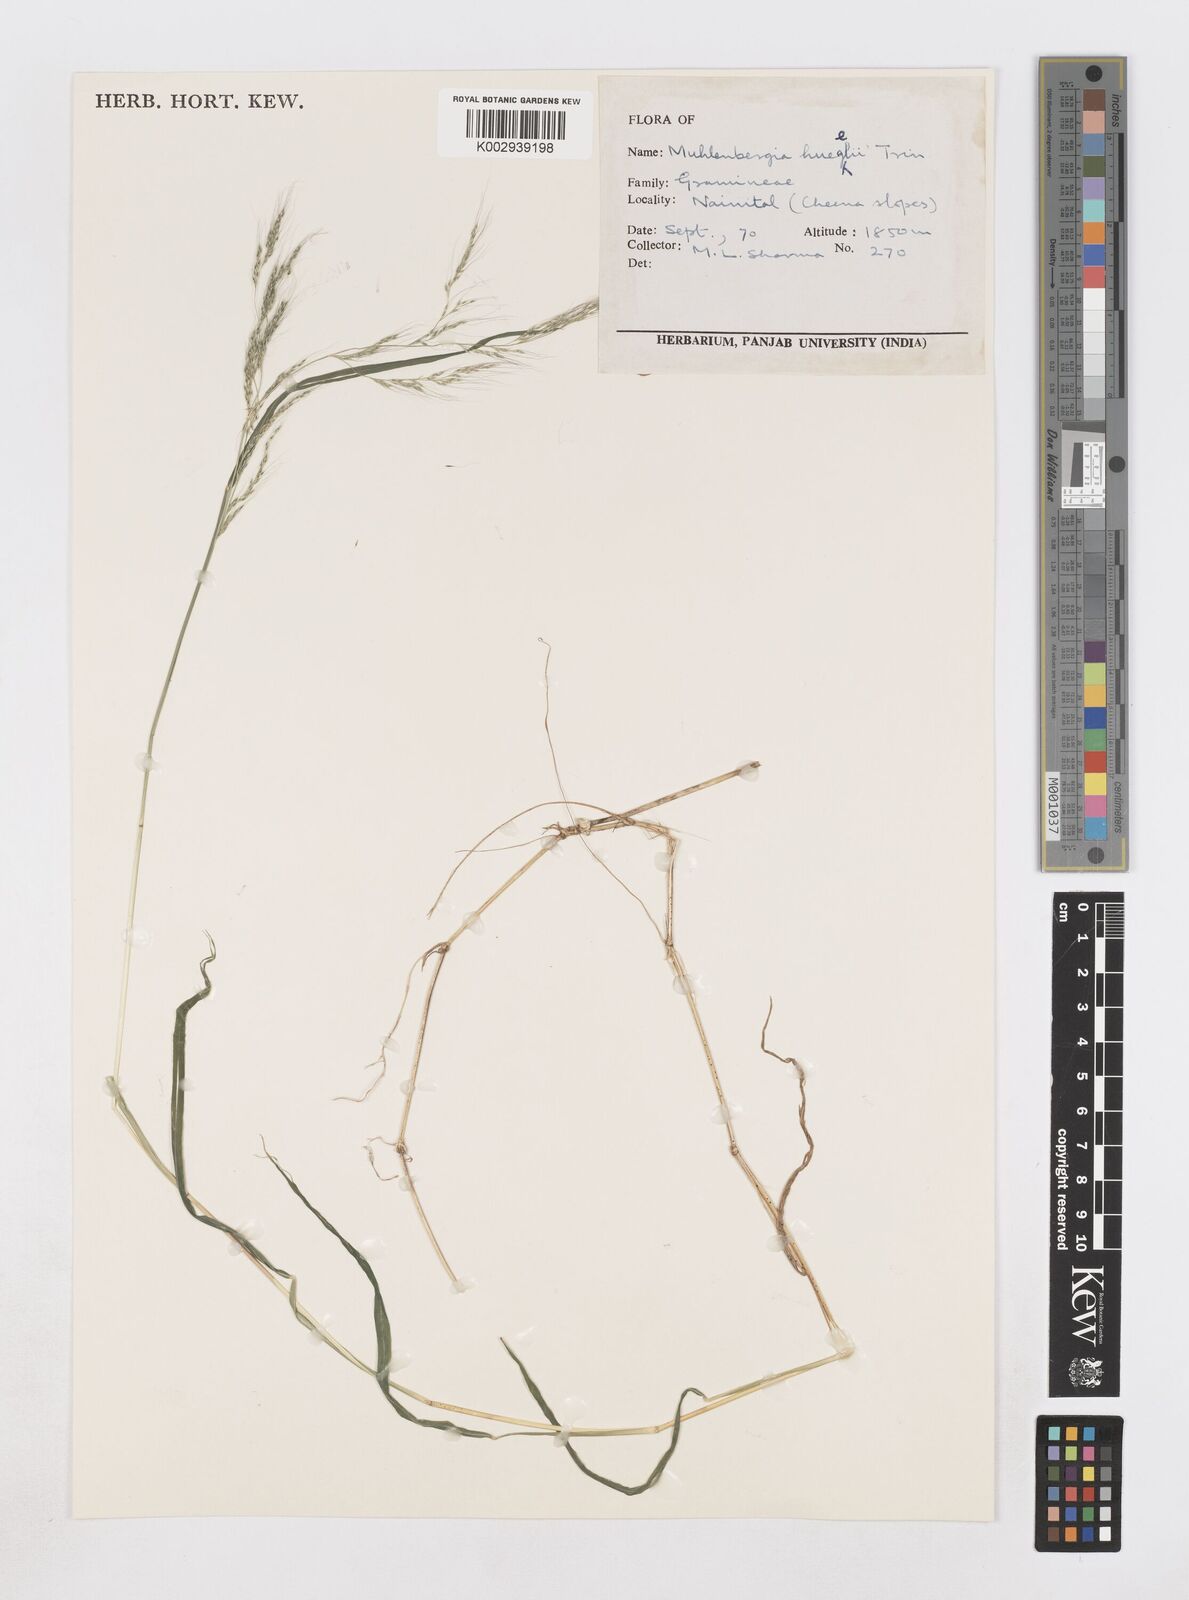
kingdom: Plantae
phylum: Tracheophyta
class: Liliopsida
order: Poales
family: Poaceae
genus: Muhlenbergia
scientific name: Muhlenbergia huegelii
